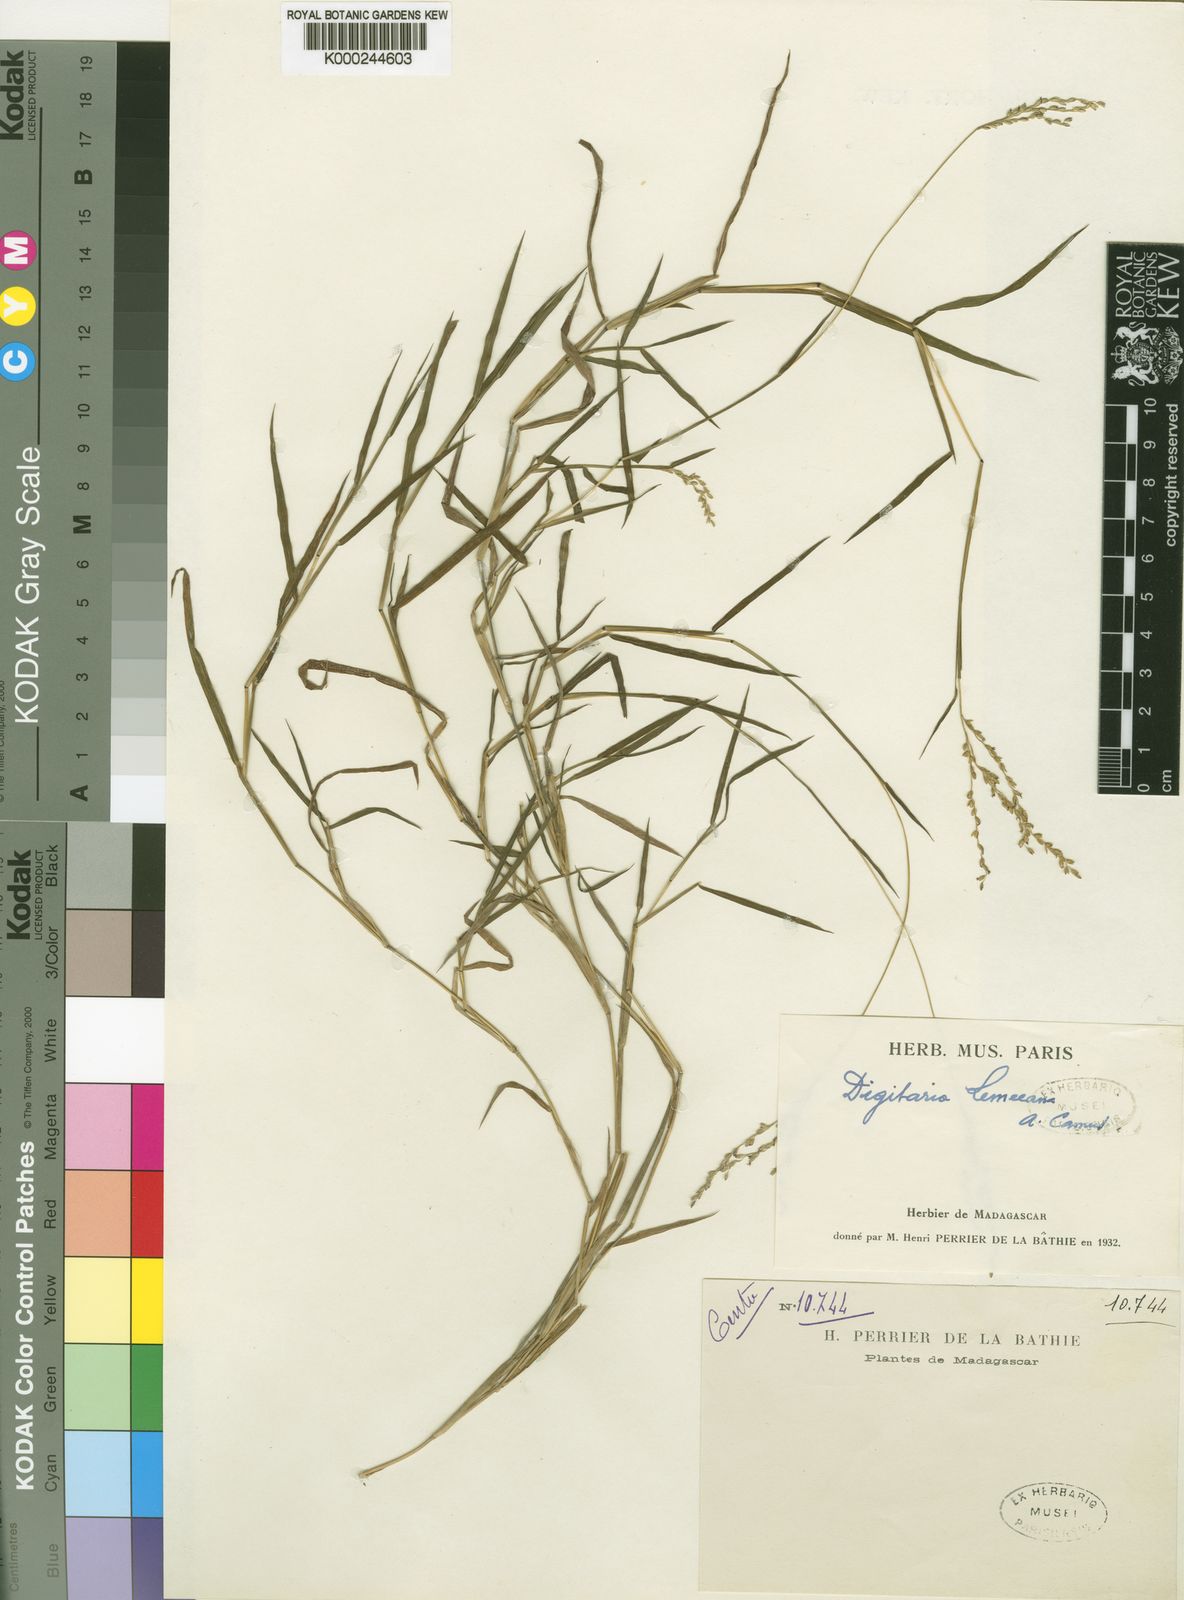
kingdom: Plantae
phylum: Tracheophyta
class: Liliopsida
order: Poales
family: Poaceae
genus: Digitaria
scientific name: Digitaria abyssinica
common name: African couchgrass
